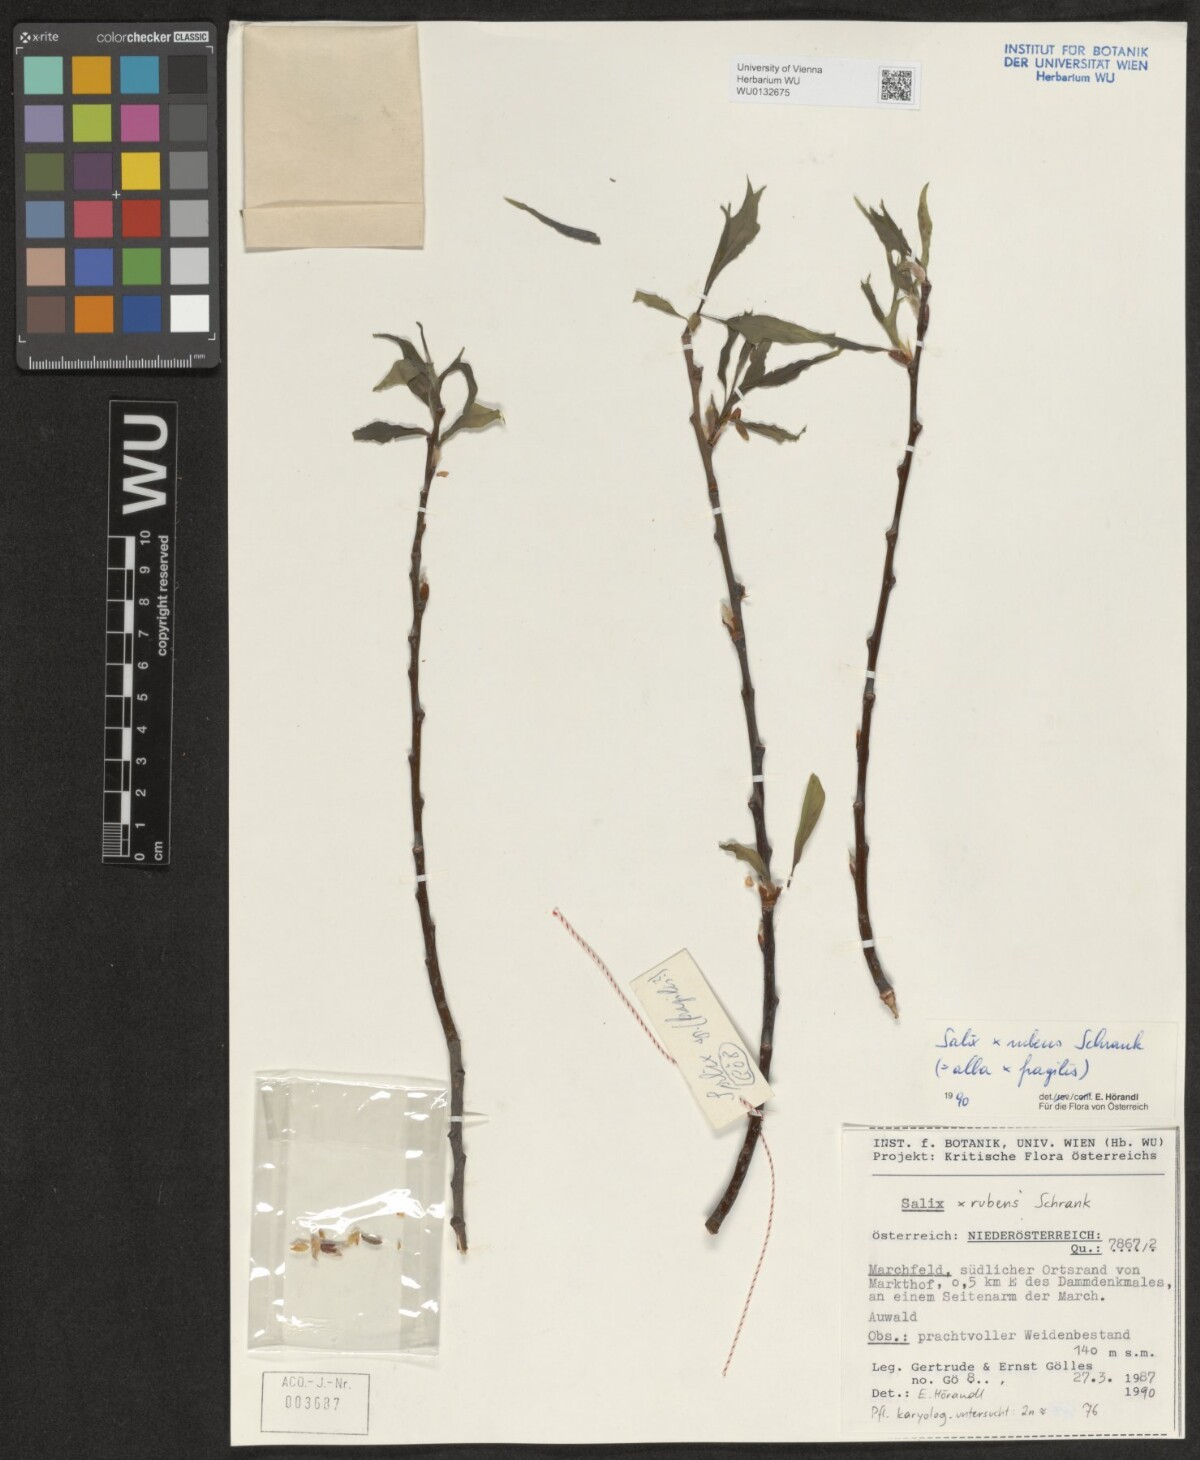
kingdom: Plantae
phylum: Tracheophyta
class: Magnoliopsida
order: Malpighiales
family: Salicaceae
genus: Salix
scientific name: Salix rubens
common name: Hybrid crack willow
